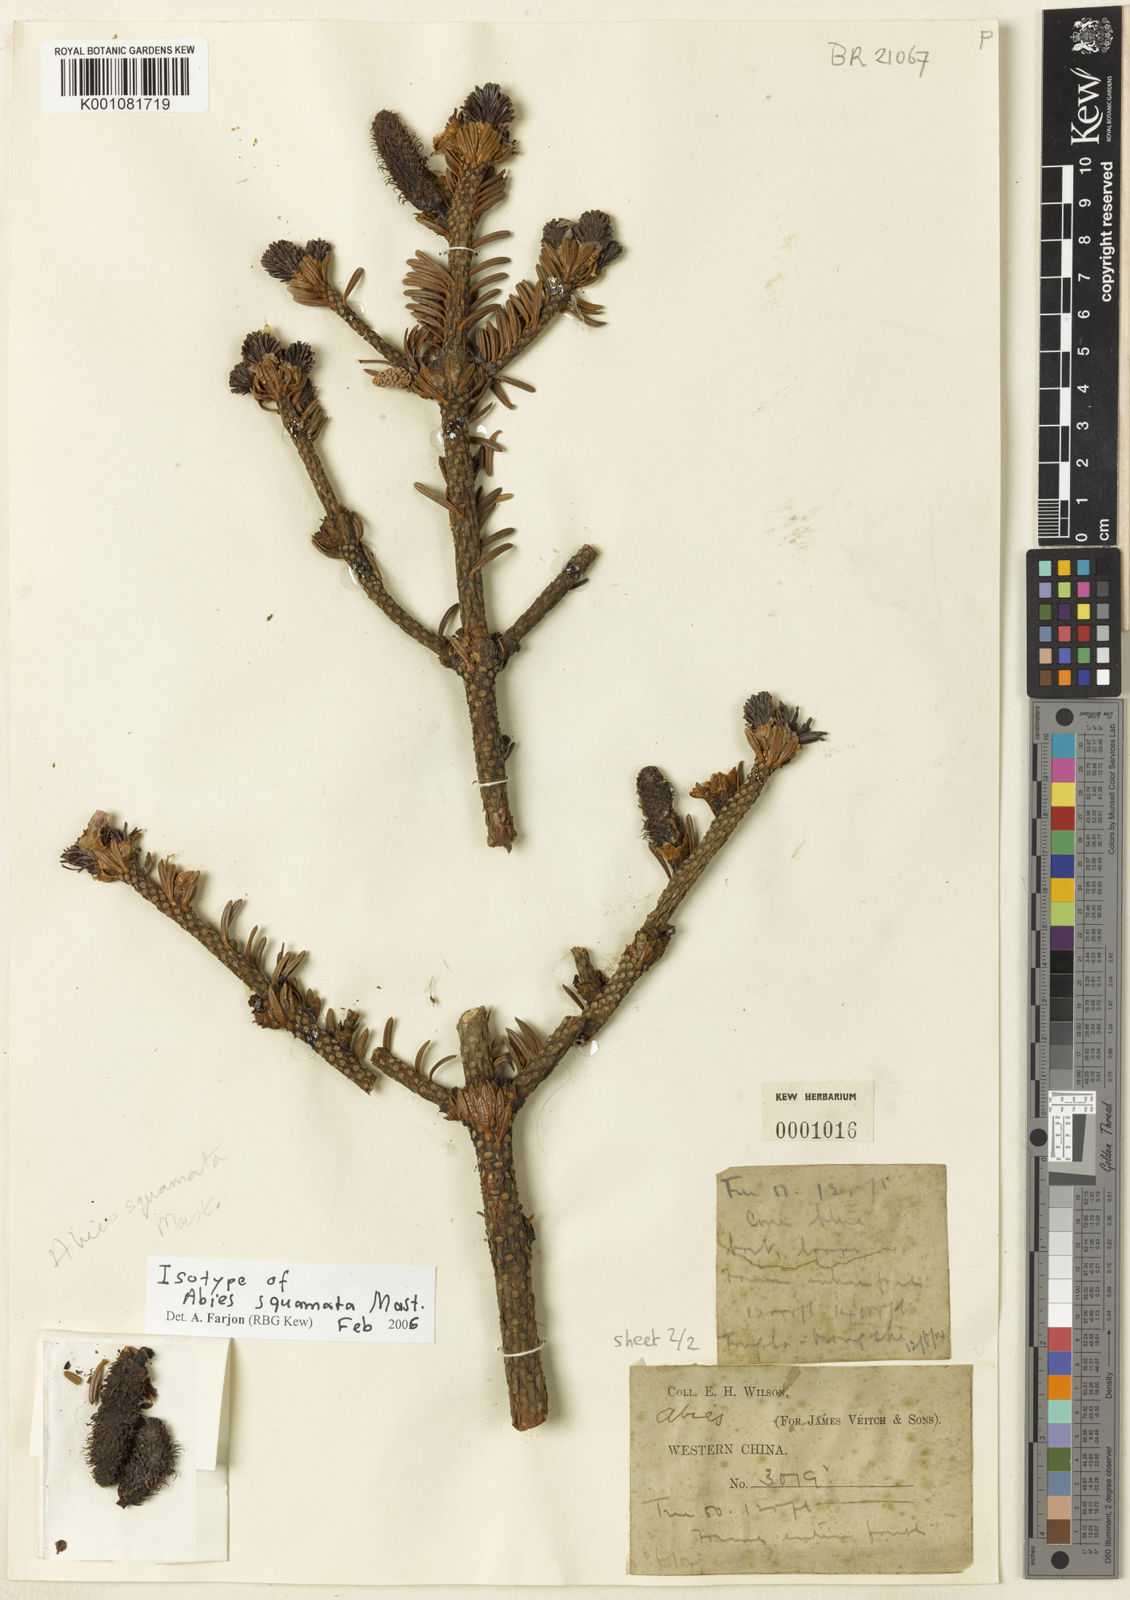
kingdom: Plantae
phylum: Tracheophyta
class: Pinopsida
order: Pinales
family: Pinaceae
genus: Abies
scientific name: Abies squamata
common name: Flaky fir
